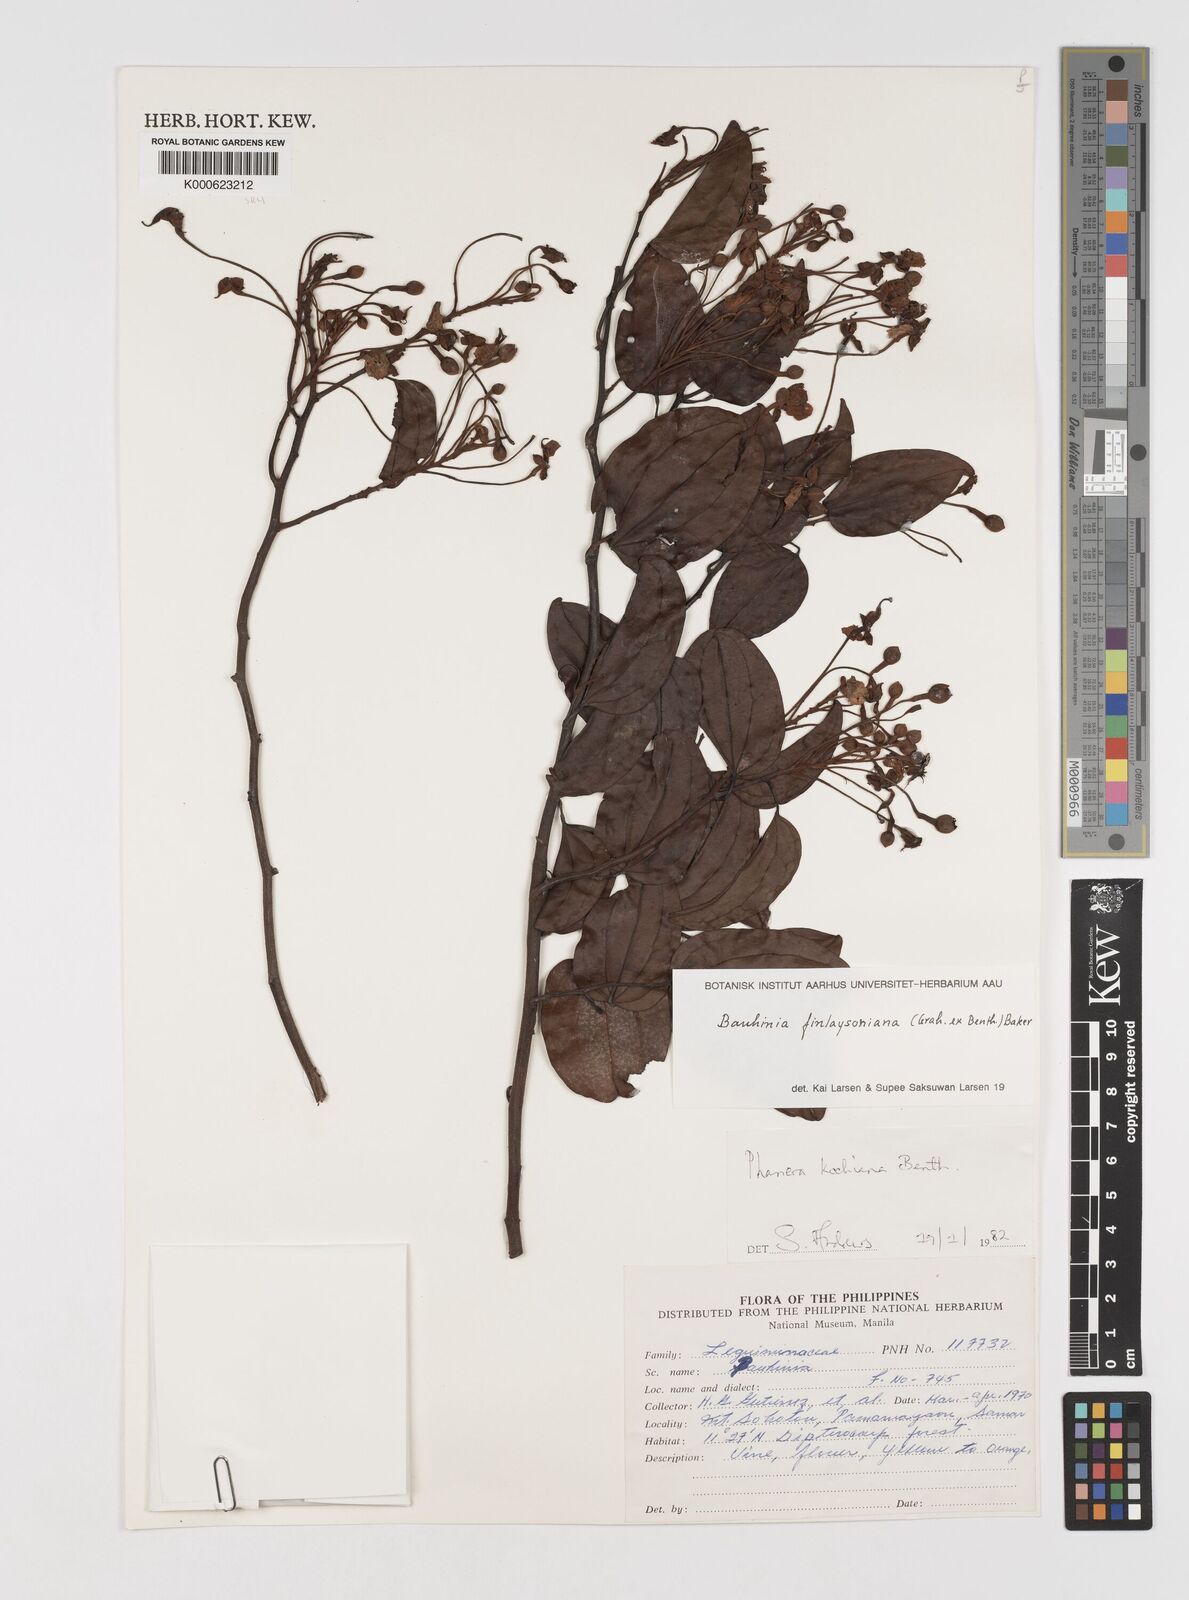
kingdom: Plantae
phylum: Tracheophyta
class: Magnoliopsida
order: Fabales
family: Fabaceae
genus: Phanera
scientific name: Phanera finlaysoniana
